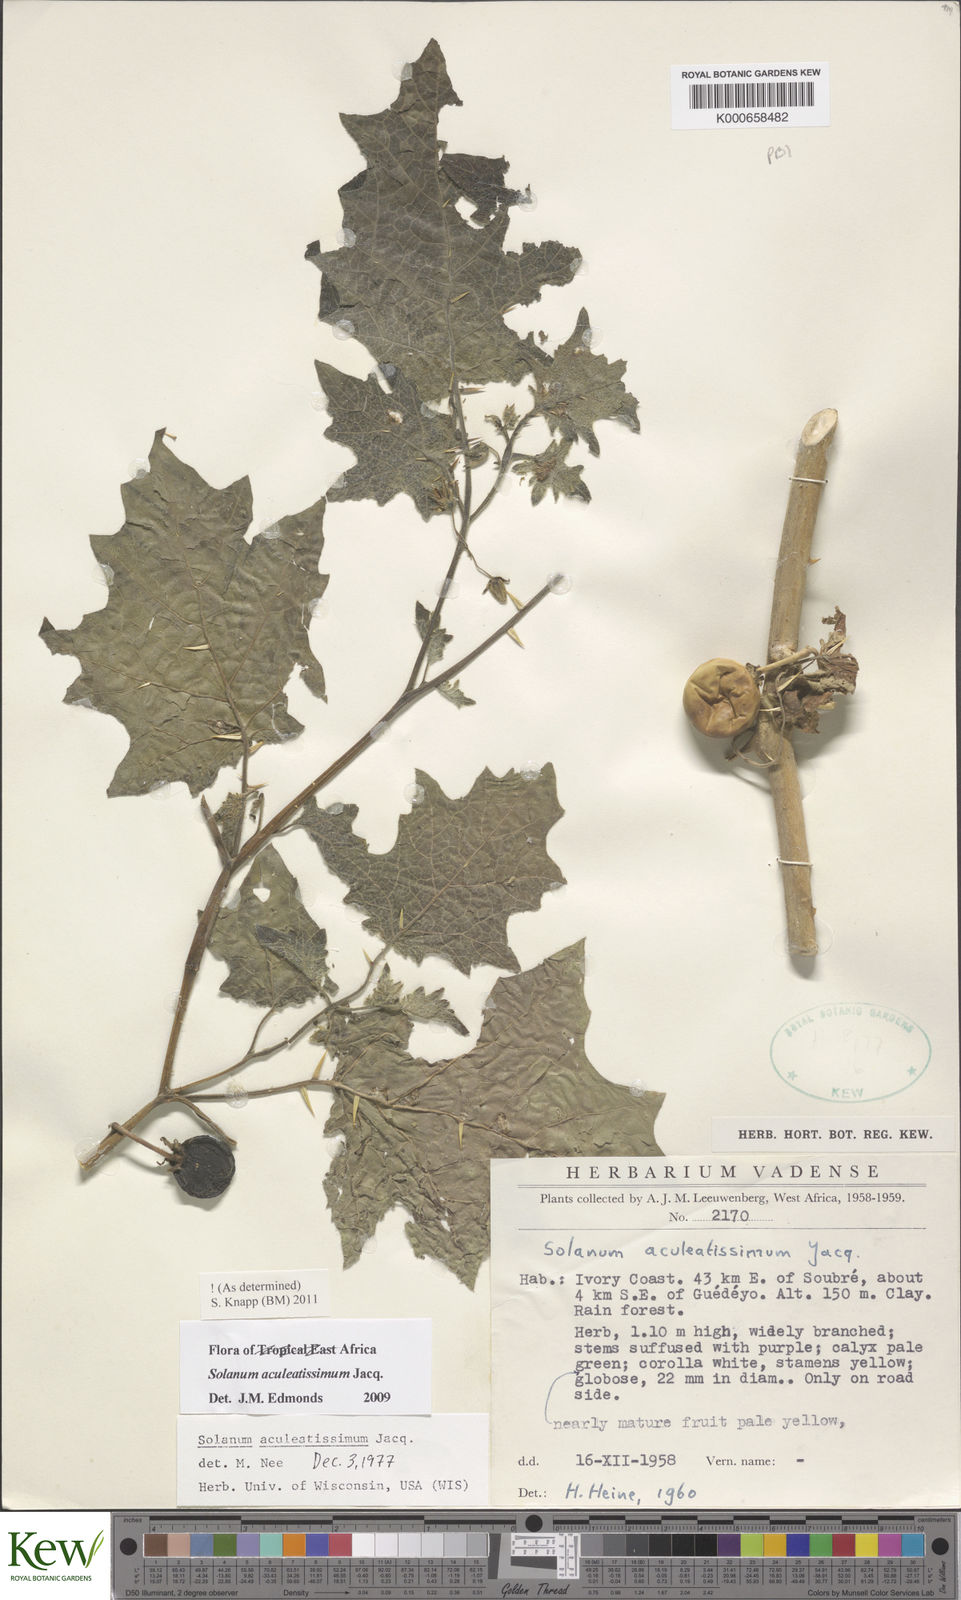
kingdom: Plantae
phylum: Tracheophyta
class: Magnoliopsida
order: Solanales
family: Solanaceae
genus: Solanum
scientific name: Solanum aculeatissimum
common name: Dutch eggplant
